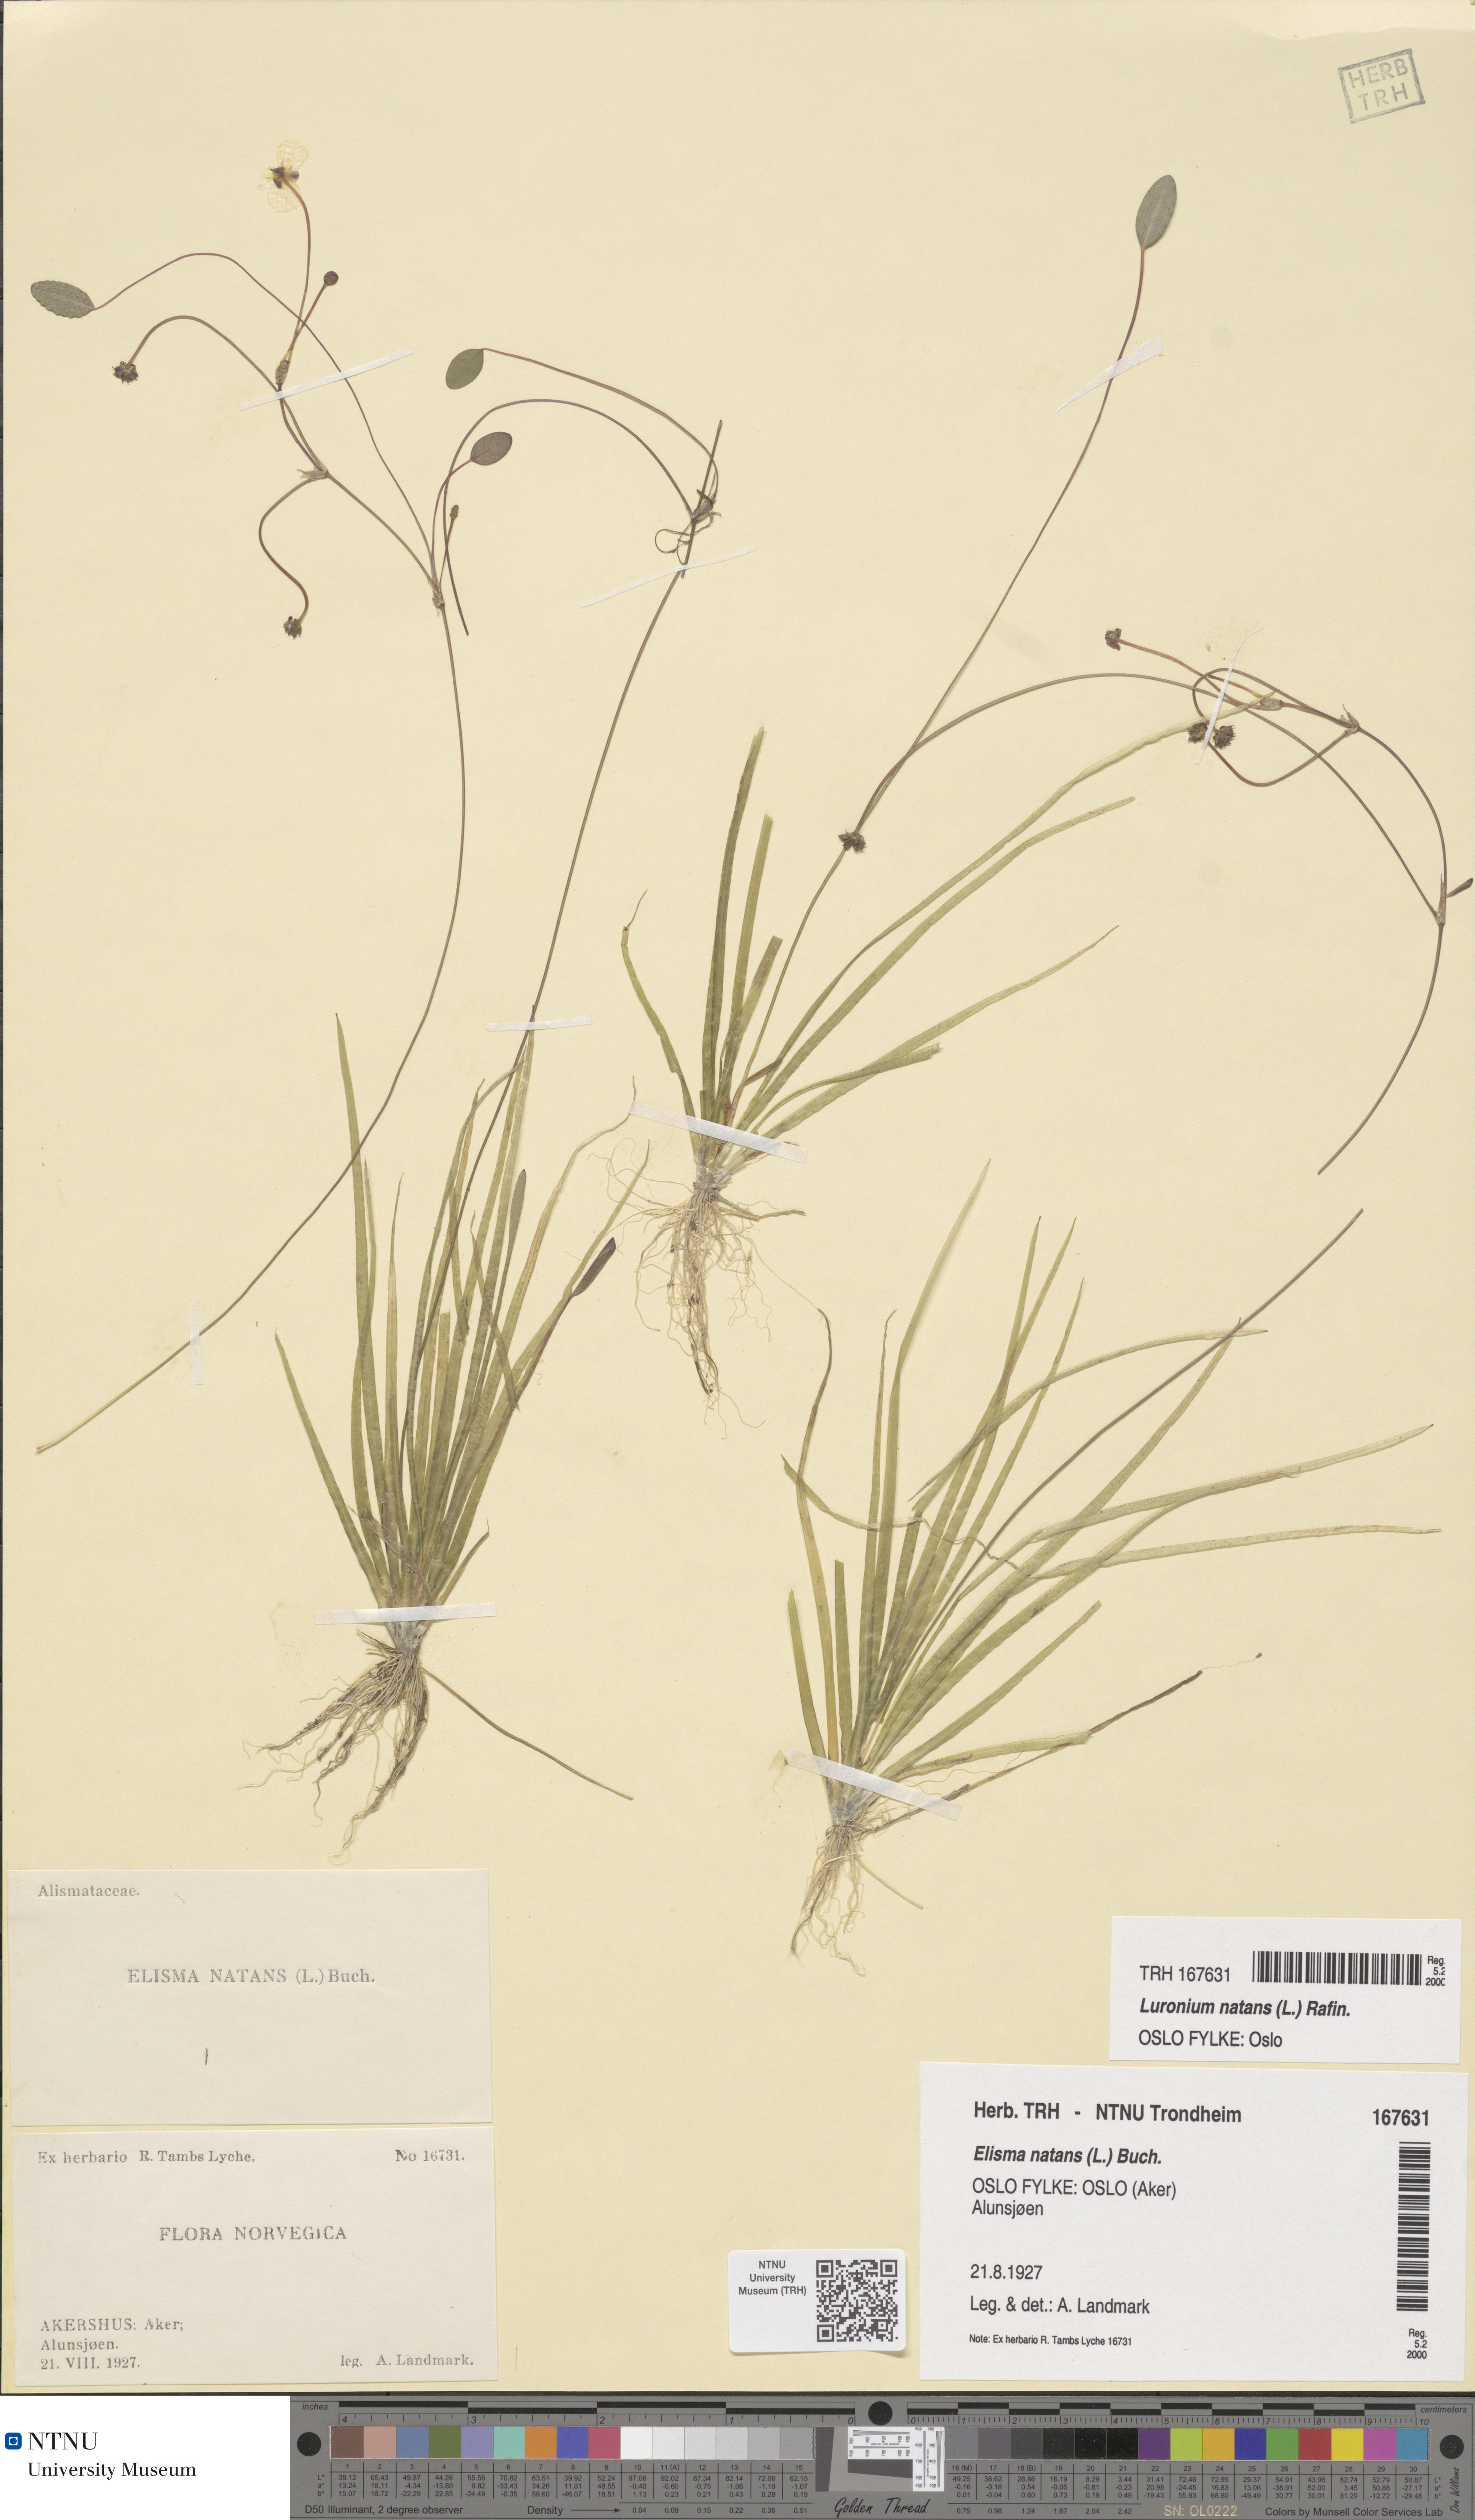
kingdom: Plantae
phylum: Tracheophyta
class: Liliopsida
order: Alismatales
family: Alismataceae
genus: Luronium
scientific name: Luronium natans
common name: Floating water-plantain
